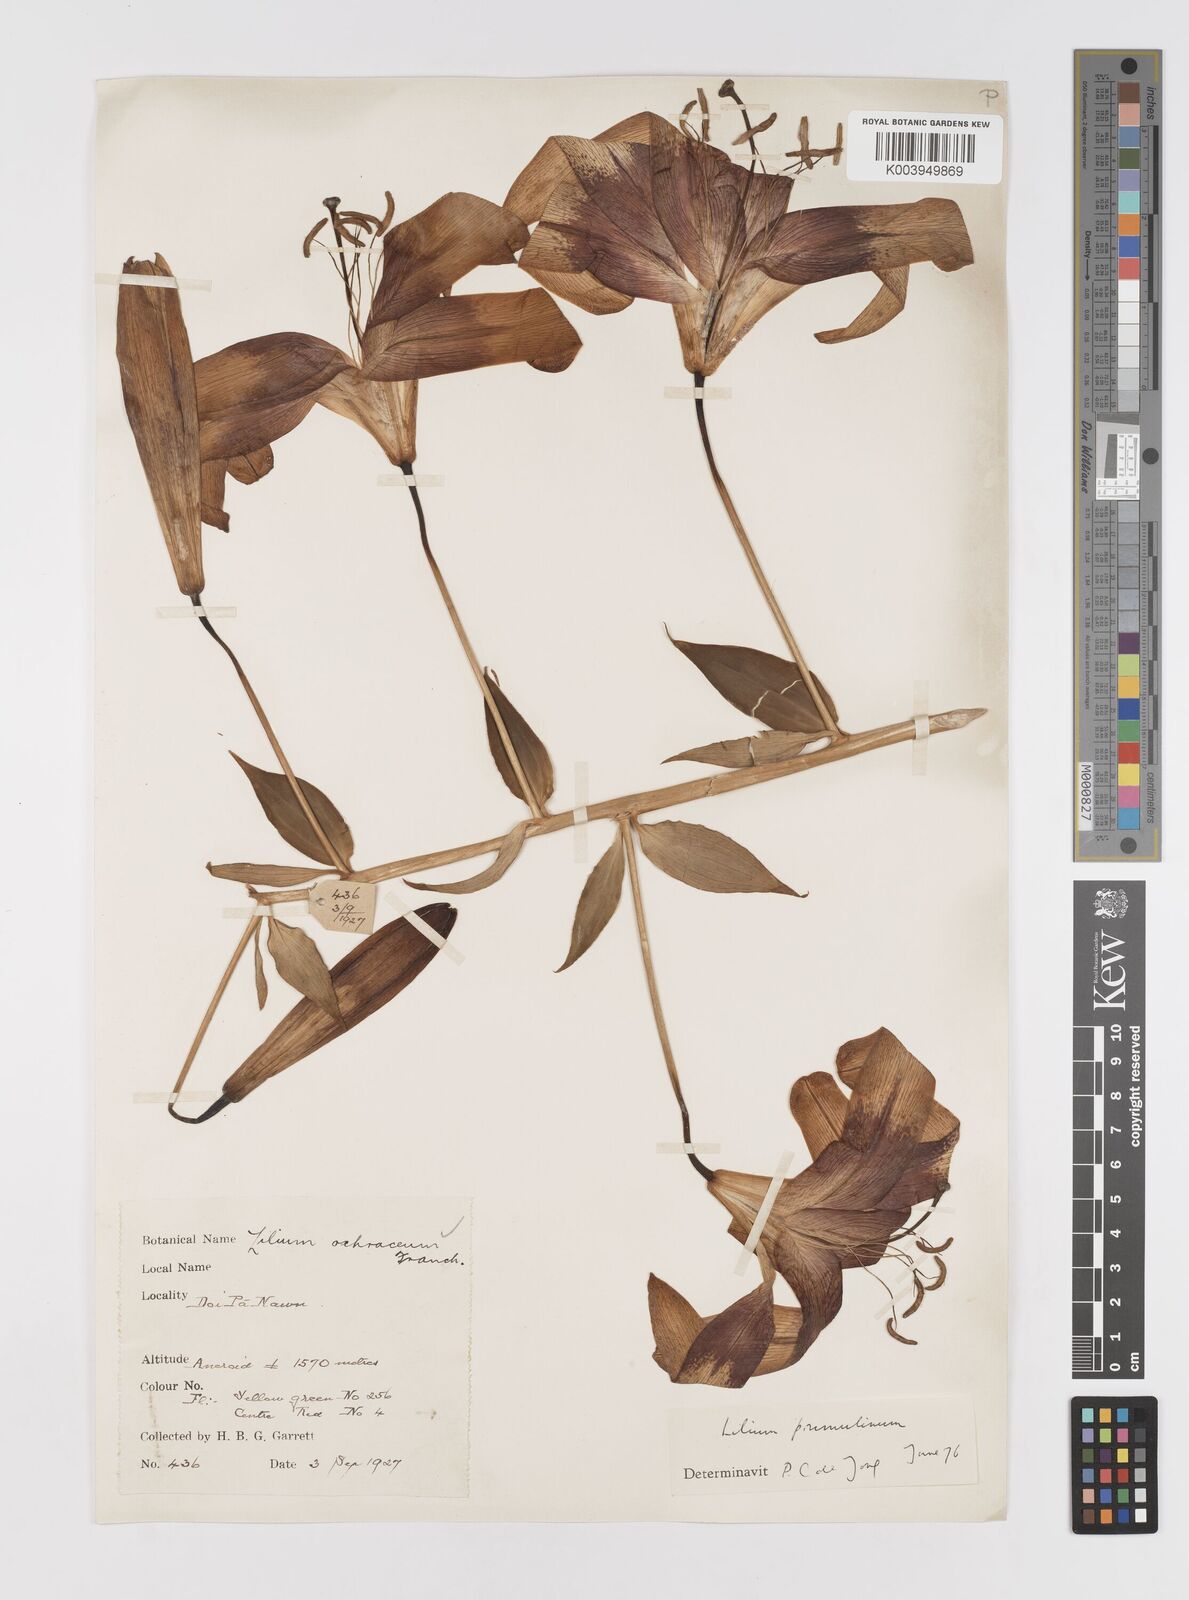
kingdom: Plantae
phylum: Tracheophyta
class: Liliopsida
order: Liliales
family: Liliaceae
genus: Lilium
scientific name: Lilium primulinum
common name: Ochre lily
